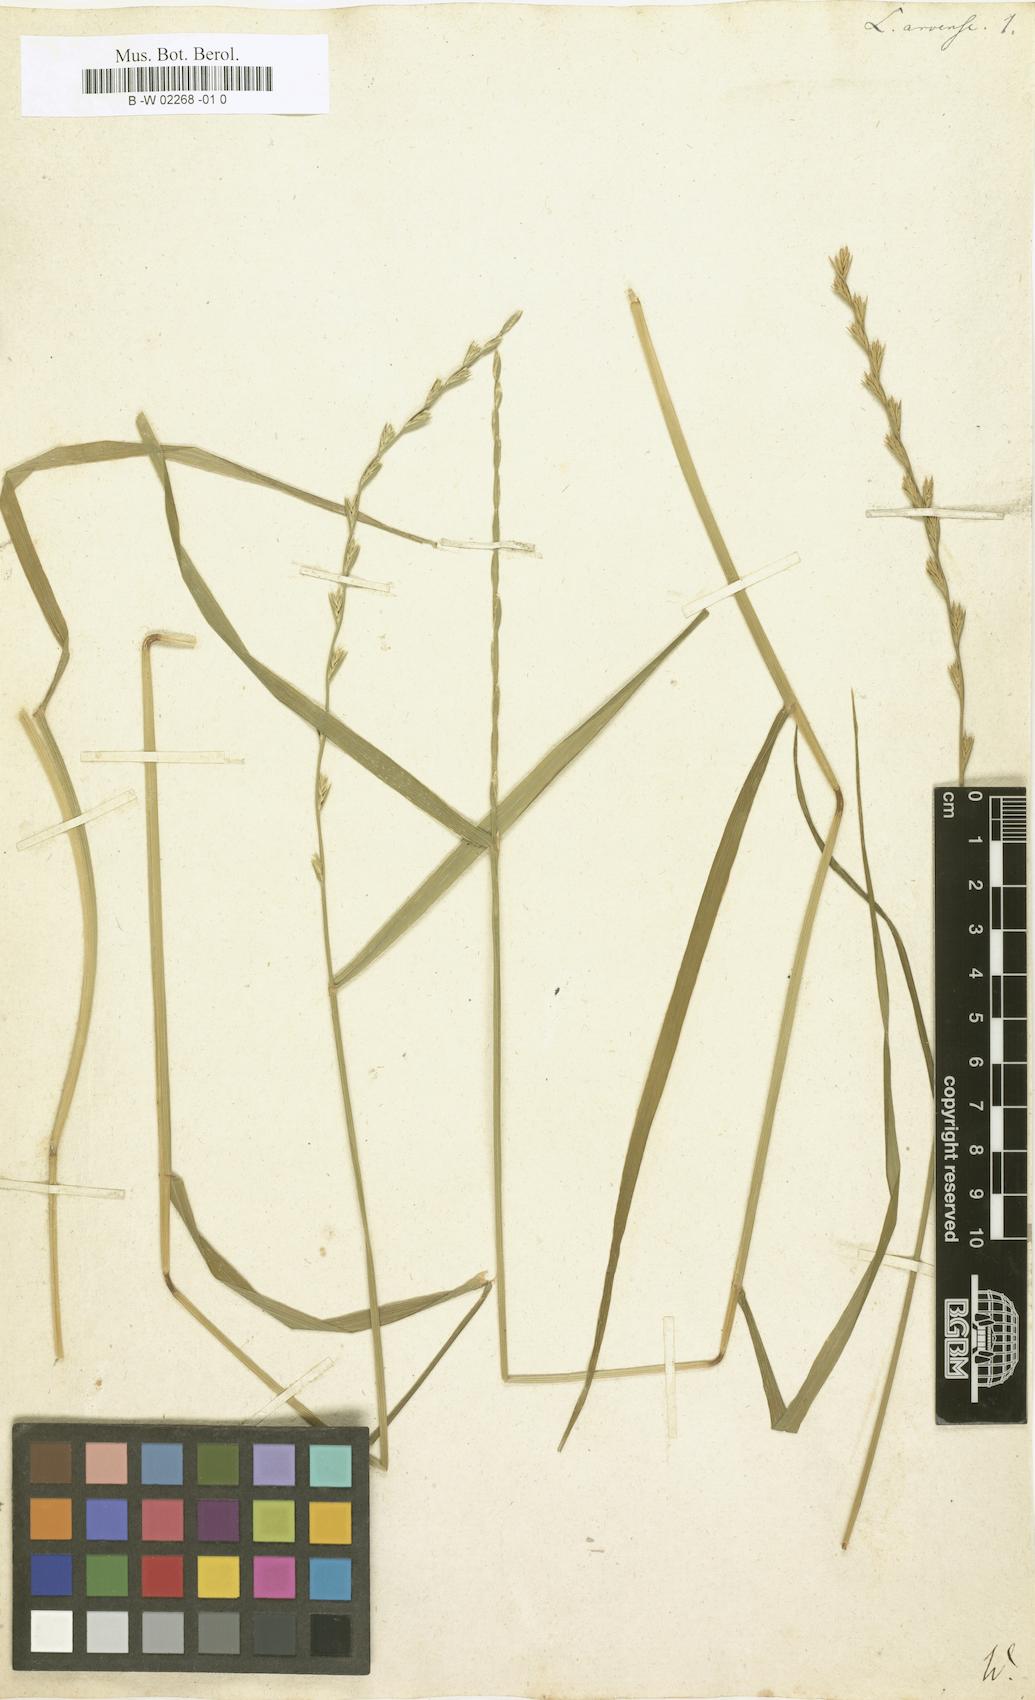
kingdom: Plantae
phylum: Tracheophyta
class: Liliopsida
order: Poales
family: Poaceae
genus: Lolium
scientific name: Lolium
